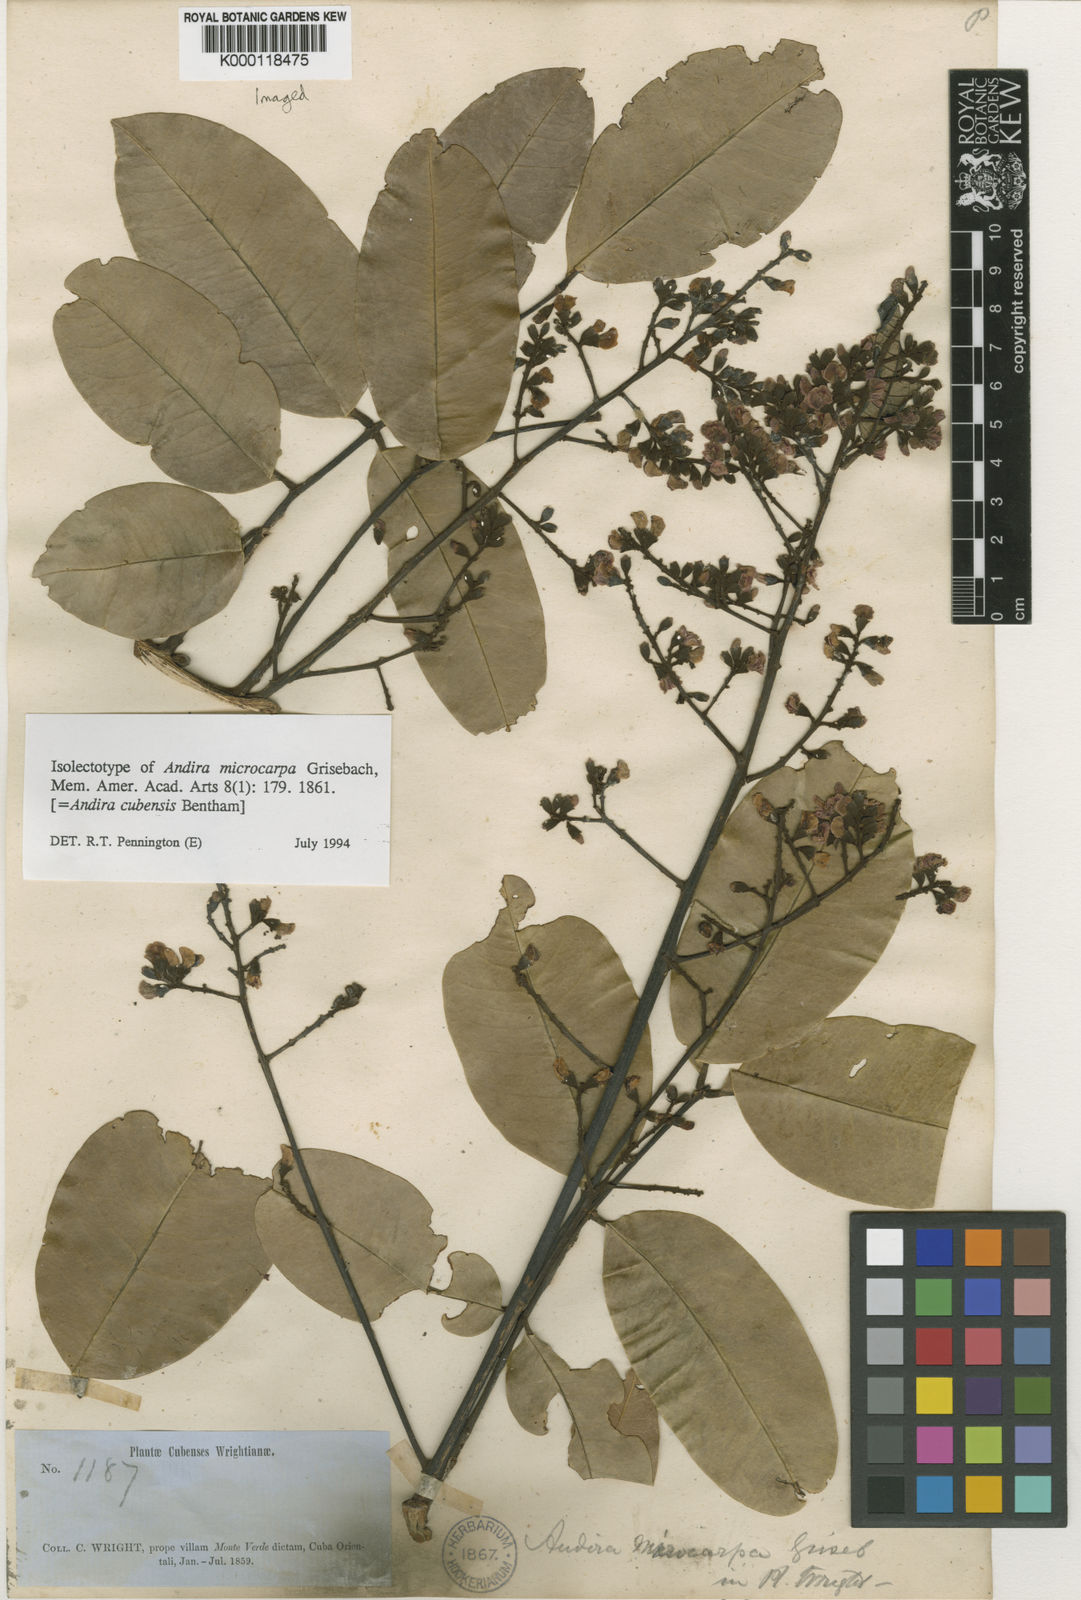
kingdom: Plantae
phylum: Tracheophyta
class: Magnoliopsida
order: Fabales
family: Fabaceae
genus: Andira
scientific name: Andira cubensis
